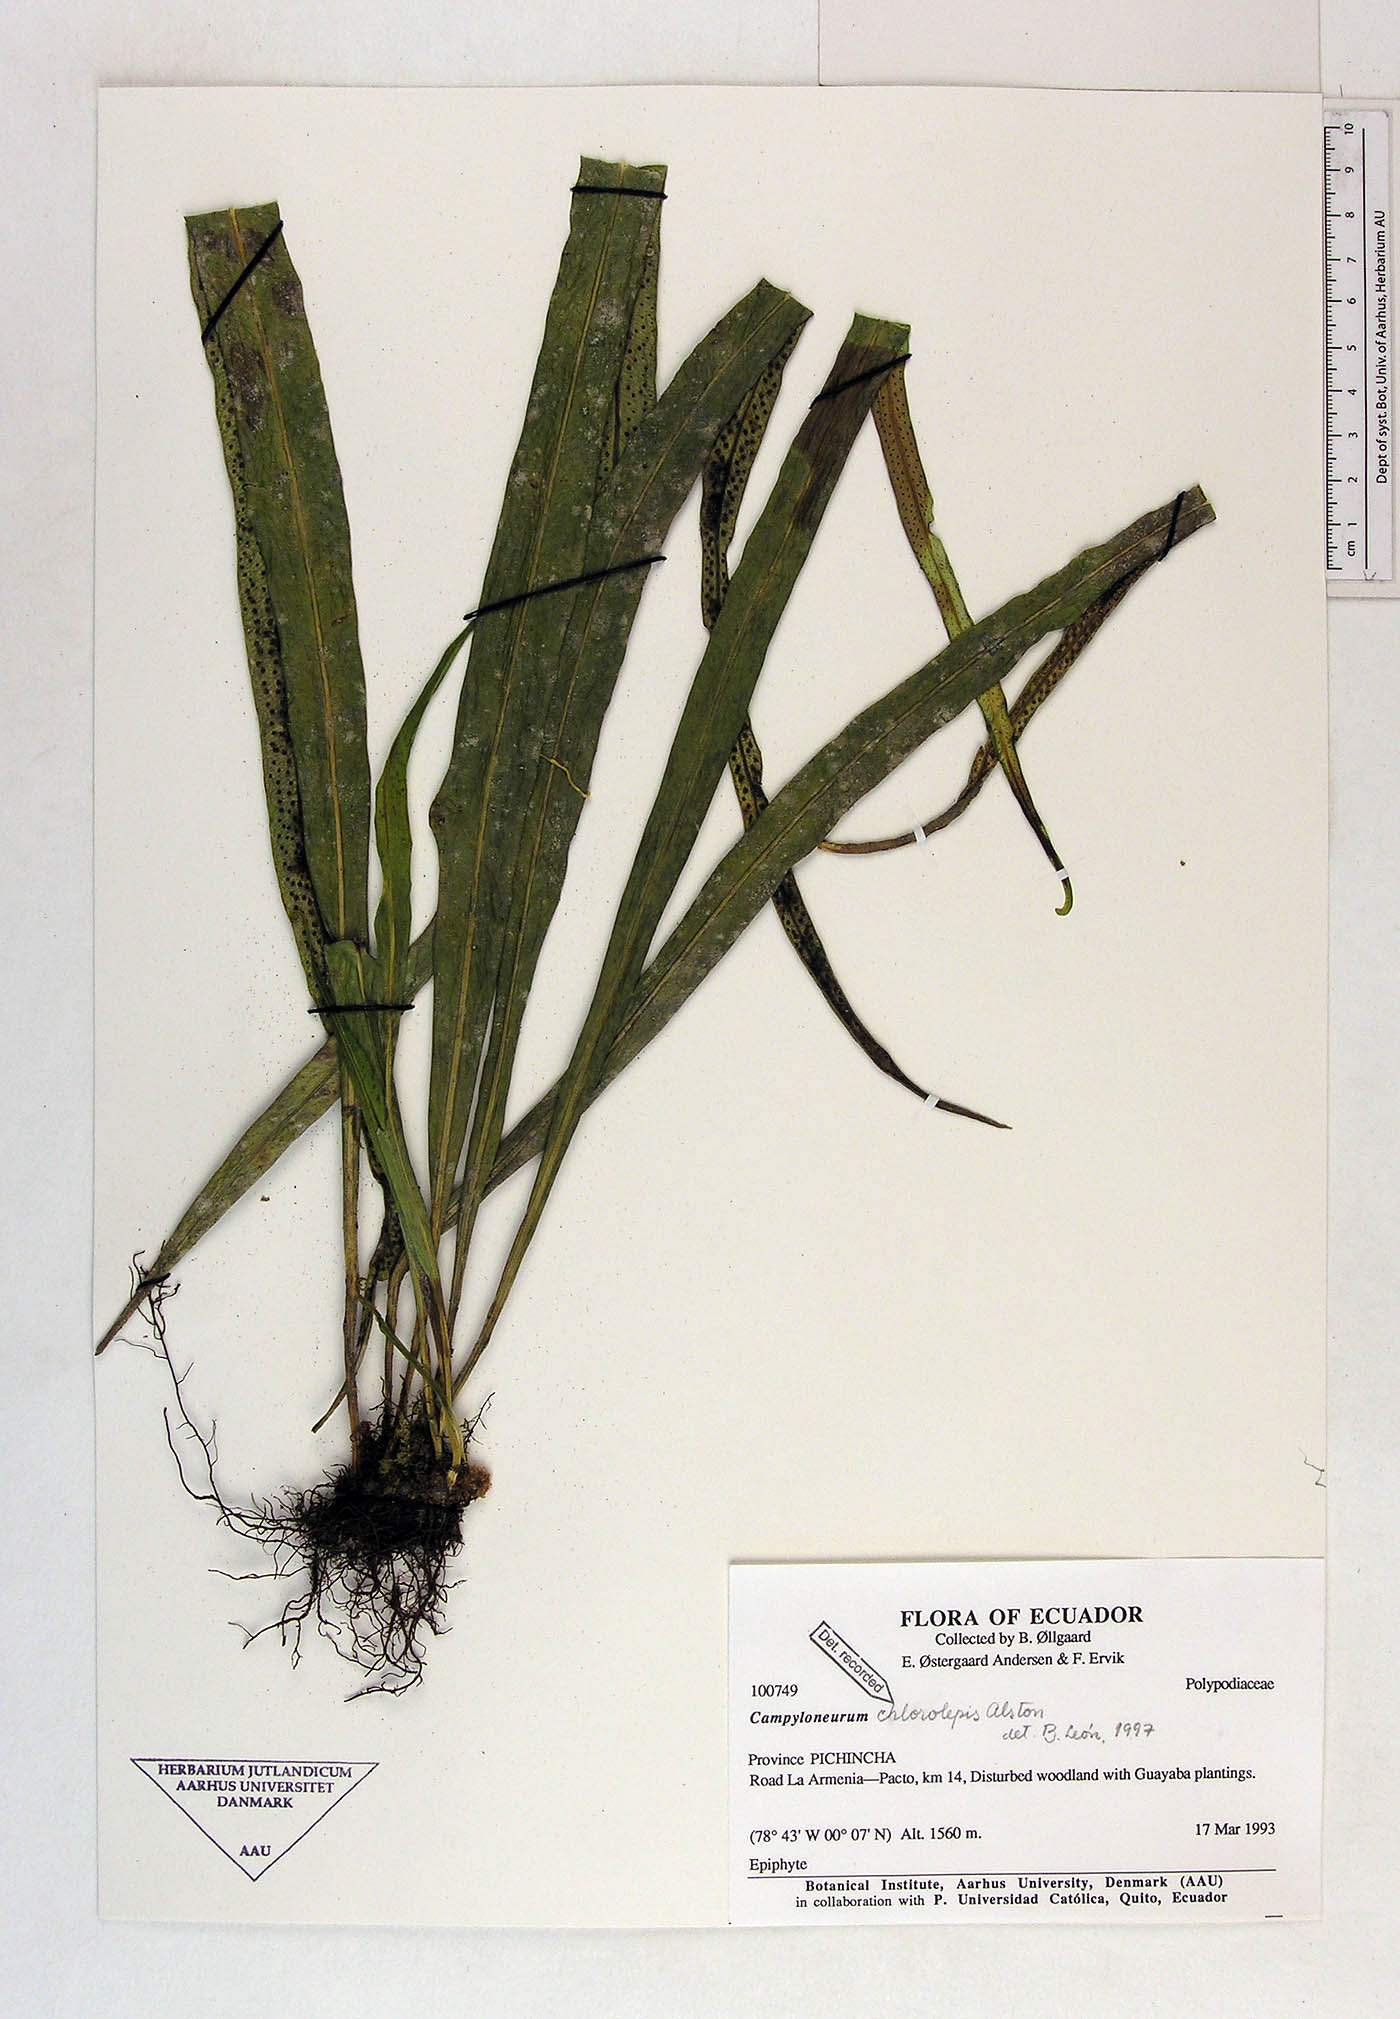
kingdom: Plantae
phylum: Tracheophyta
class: Polypodiopsida
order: Polypodiales
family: Polypodiaceae
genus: Campyloneurum
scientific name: Campyloneurum chlorolepis
